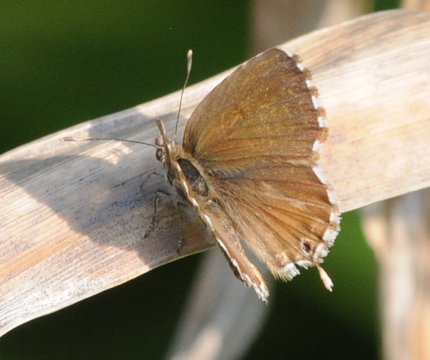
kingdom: Animalia
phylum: Arthropoda
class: Insecta
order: Lepidoptera
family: Lycaenidae
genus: Cacyreus
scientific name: Cacyreus marshalli
